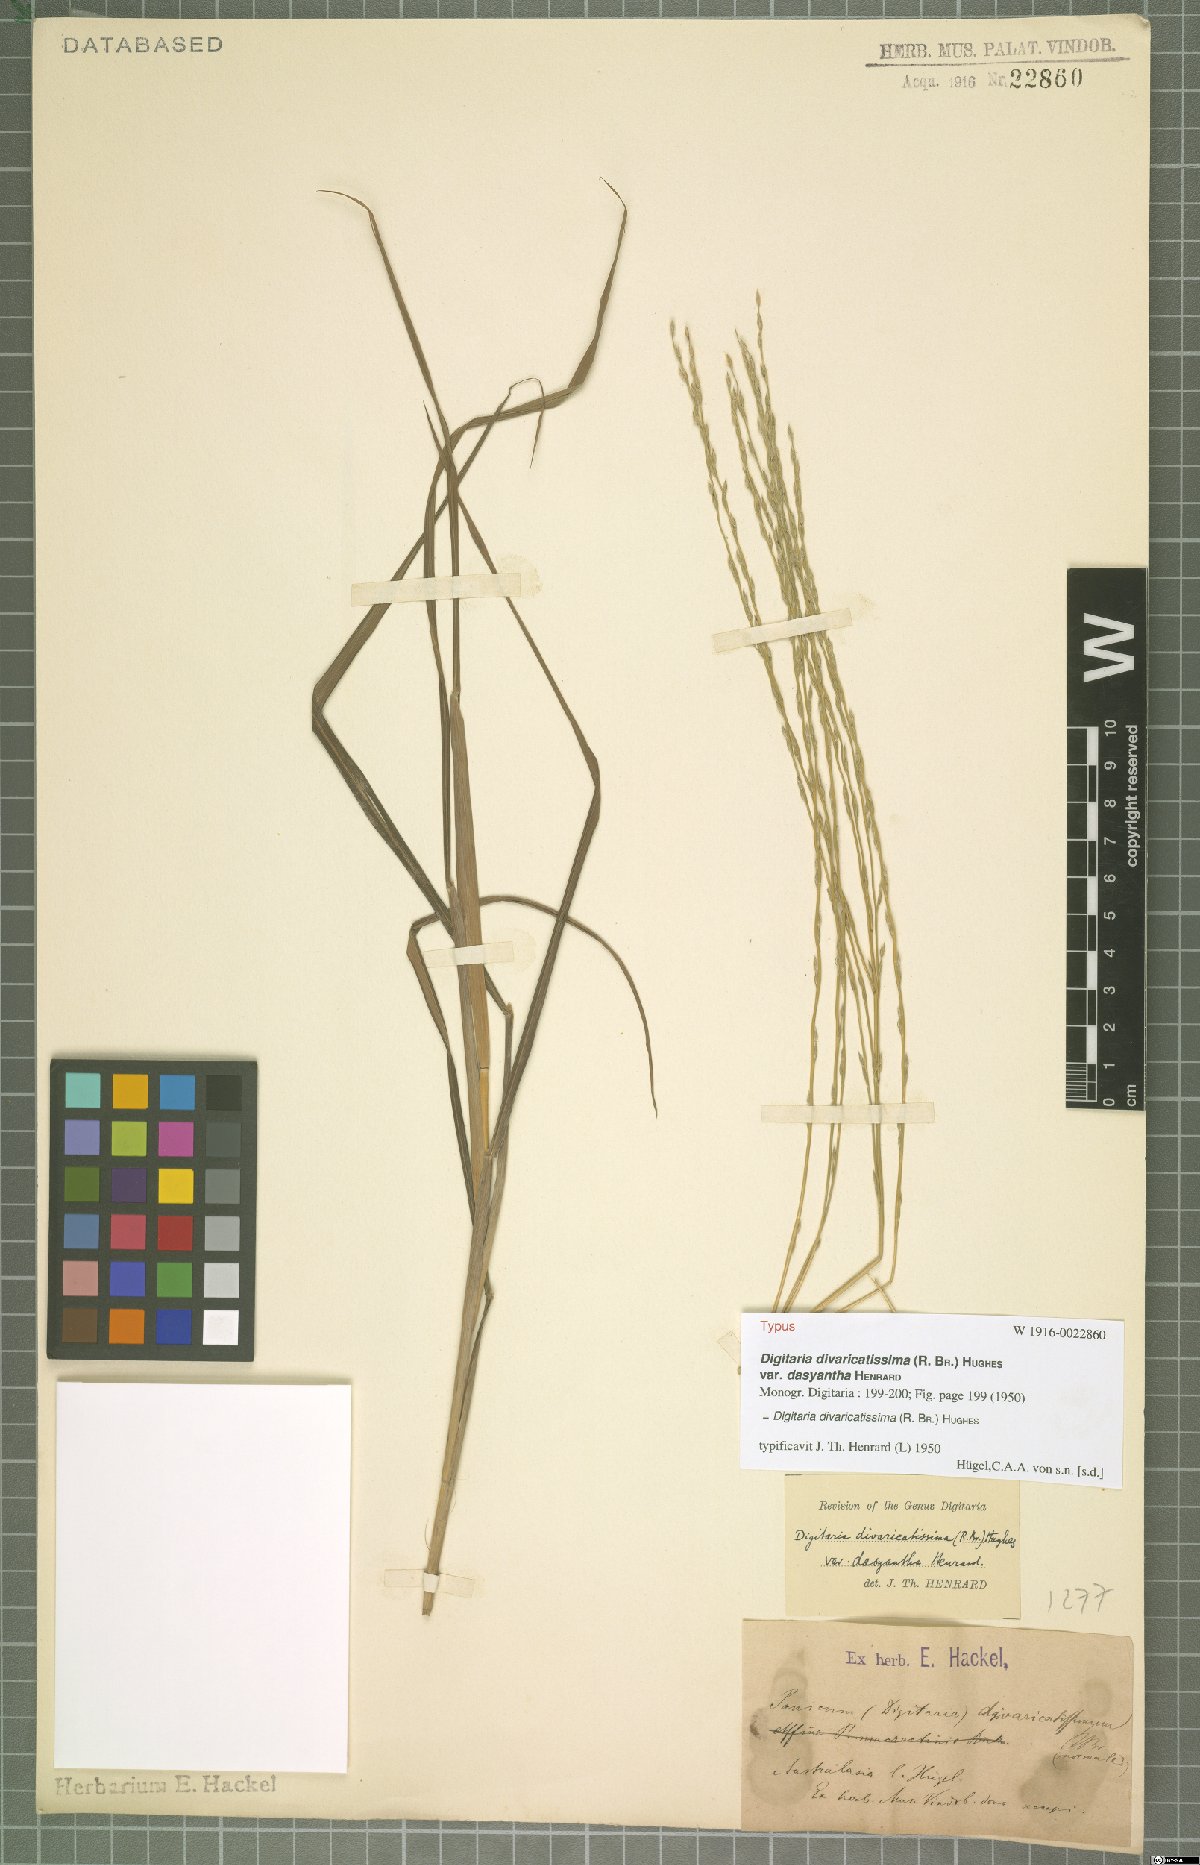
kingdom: Plantae
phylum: Tracheophyta
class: Liliopsida
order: Poales
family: Poaceae
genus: Digitaria
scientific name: Digitaria divaricatissima
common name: Crabgrass
